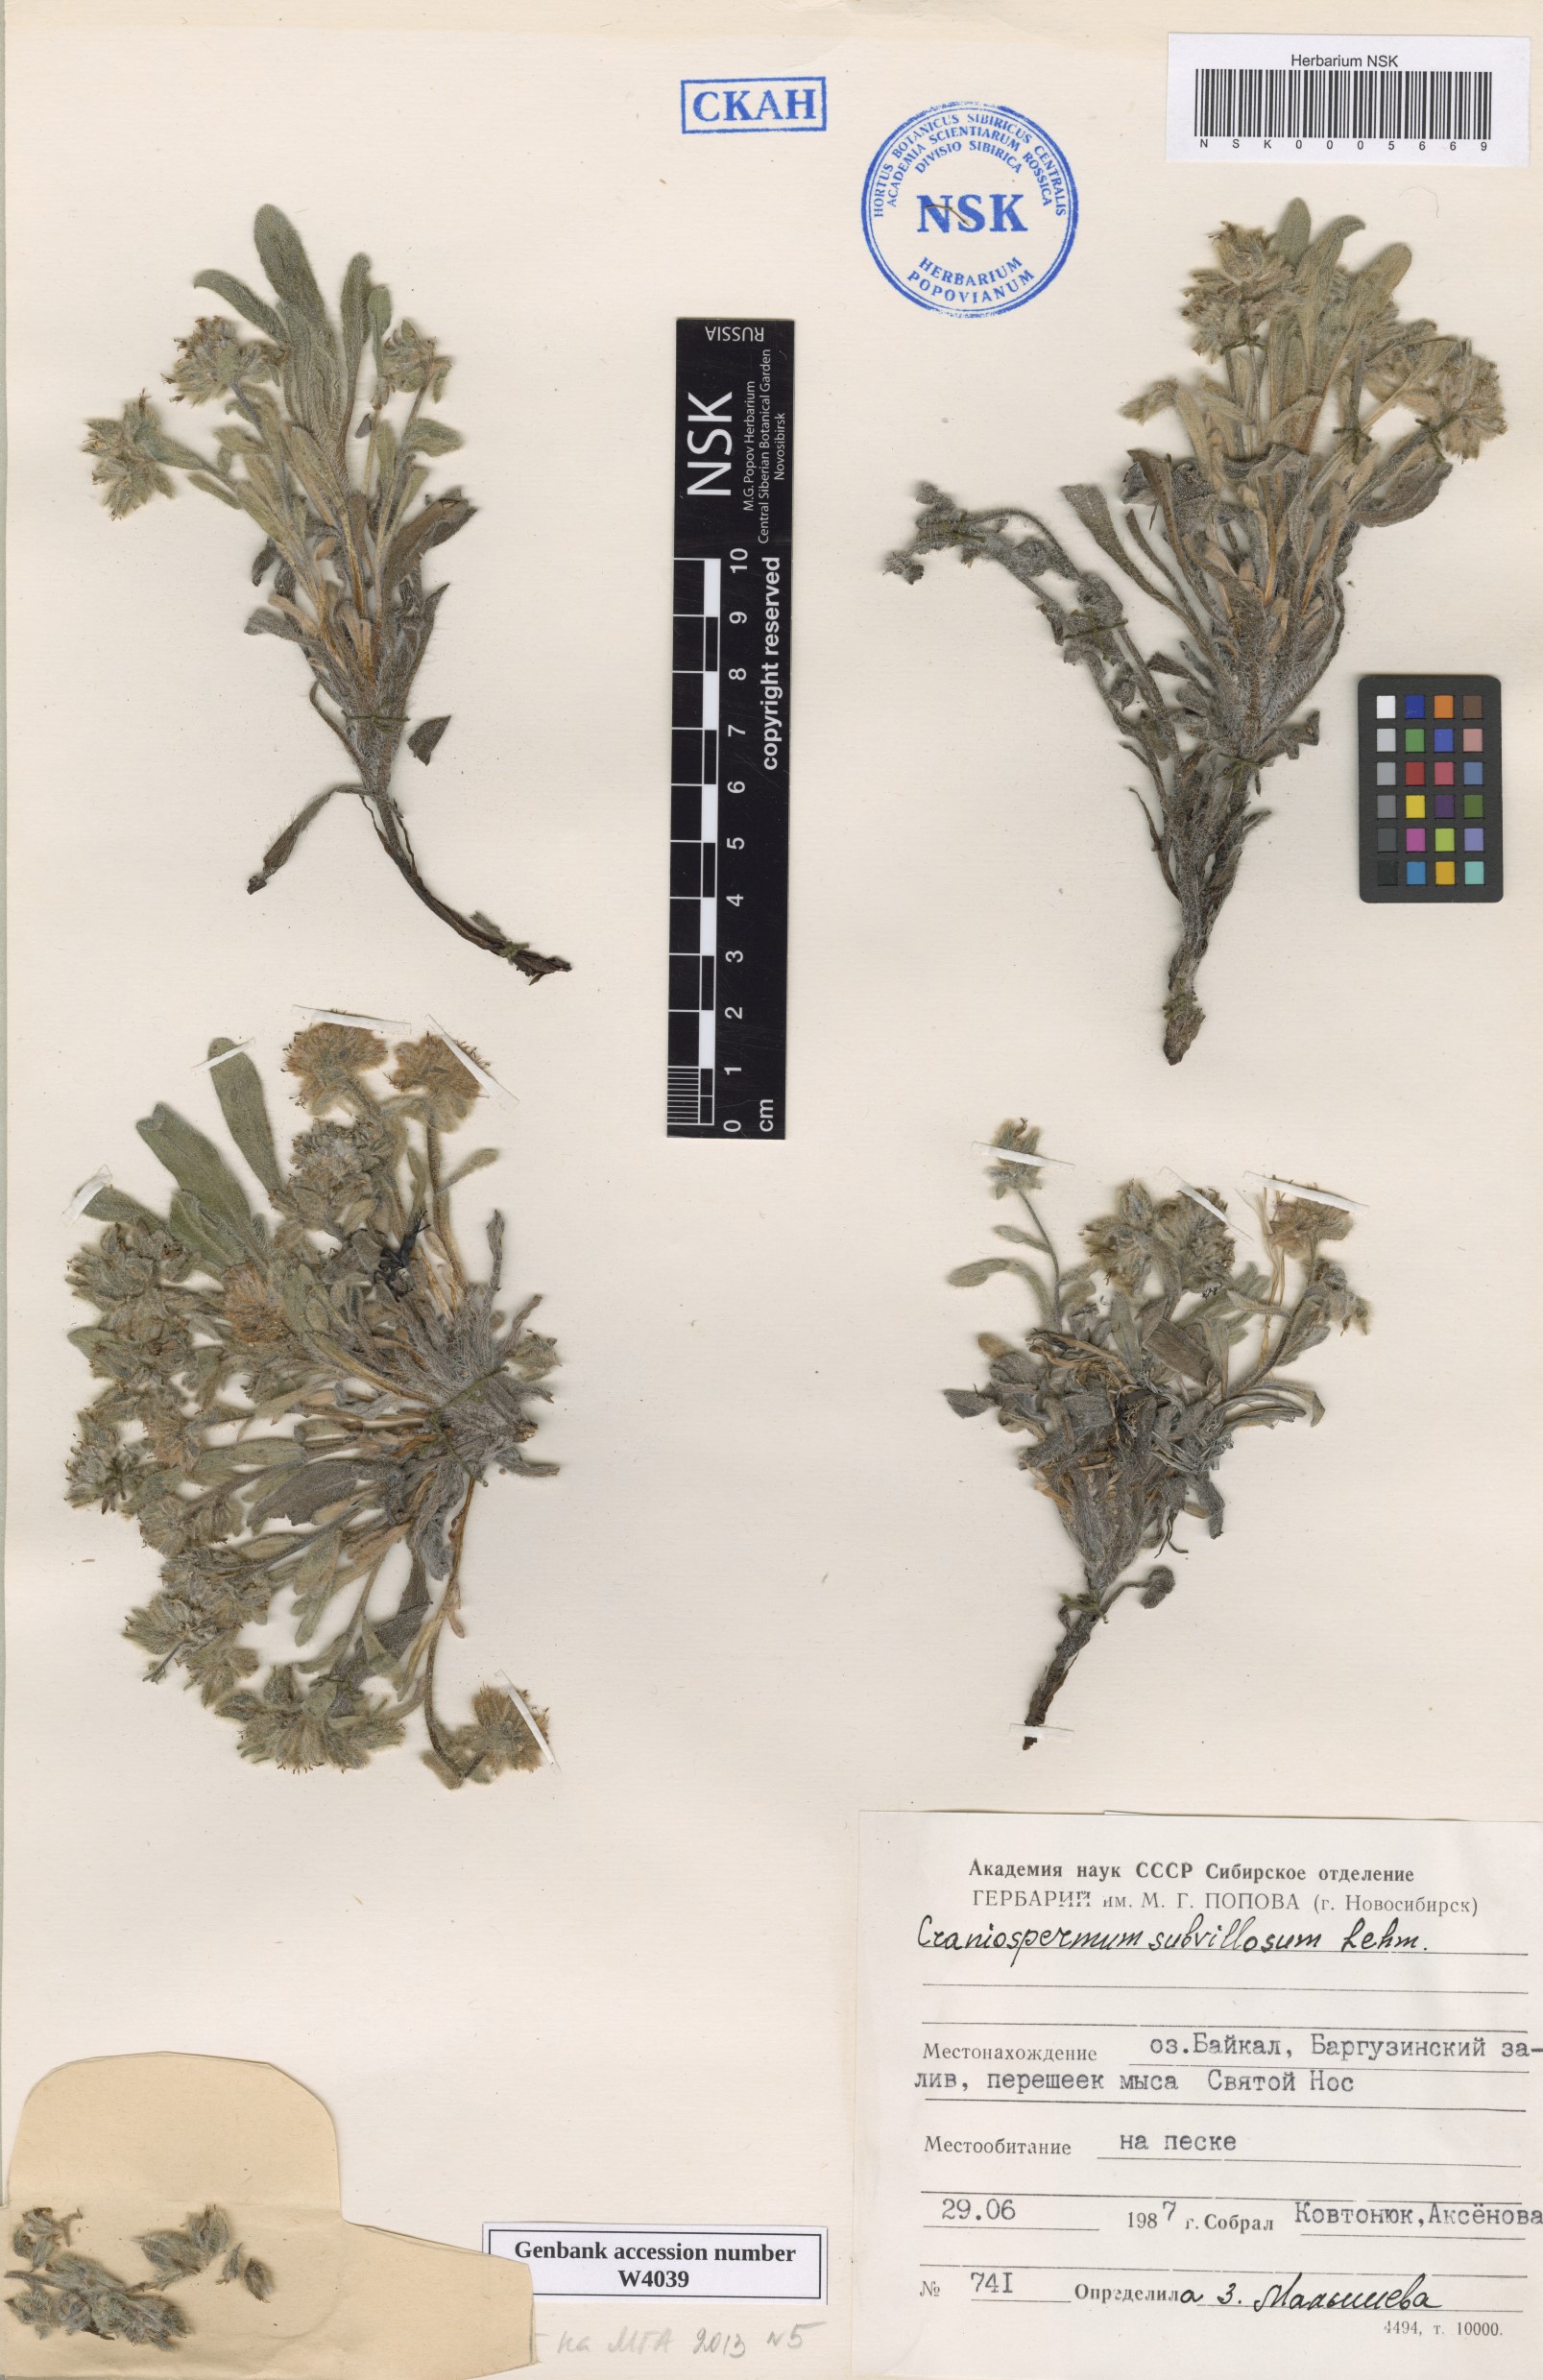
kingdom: Plantae
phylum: Tracheophyta
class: Magnoliopsida
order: Boraginales
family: Boraginaceae
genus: Craniospermum
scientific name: Craniospermum subvillosum
